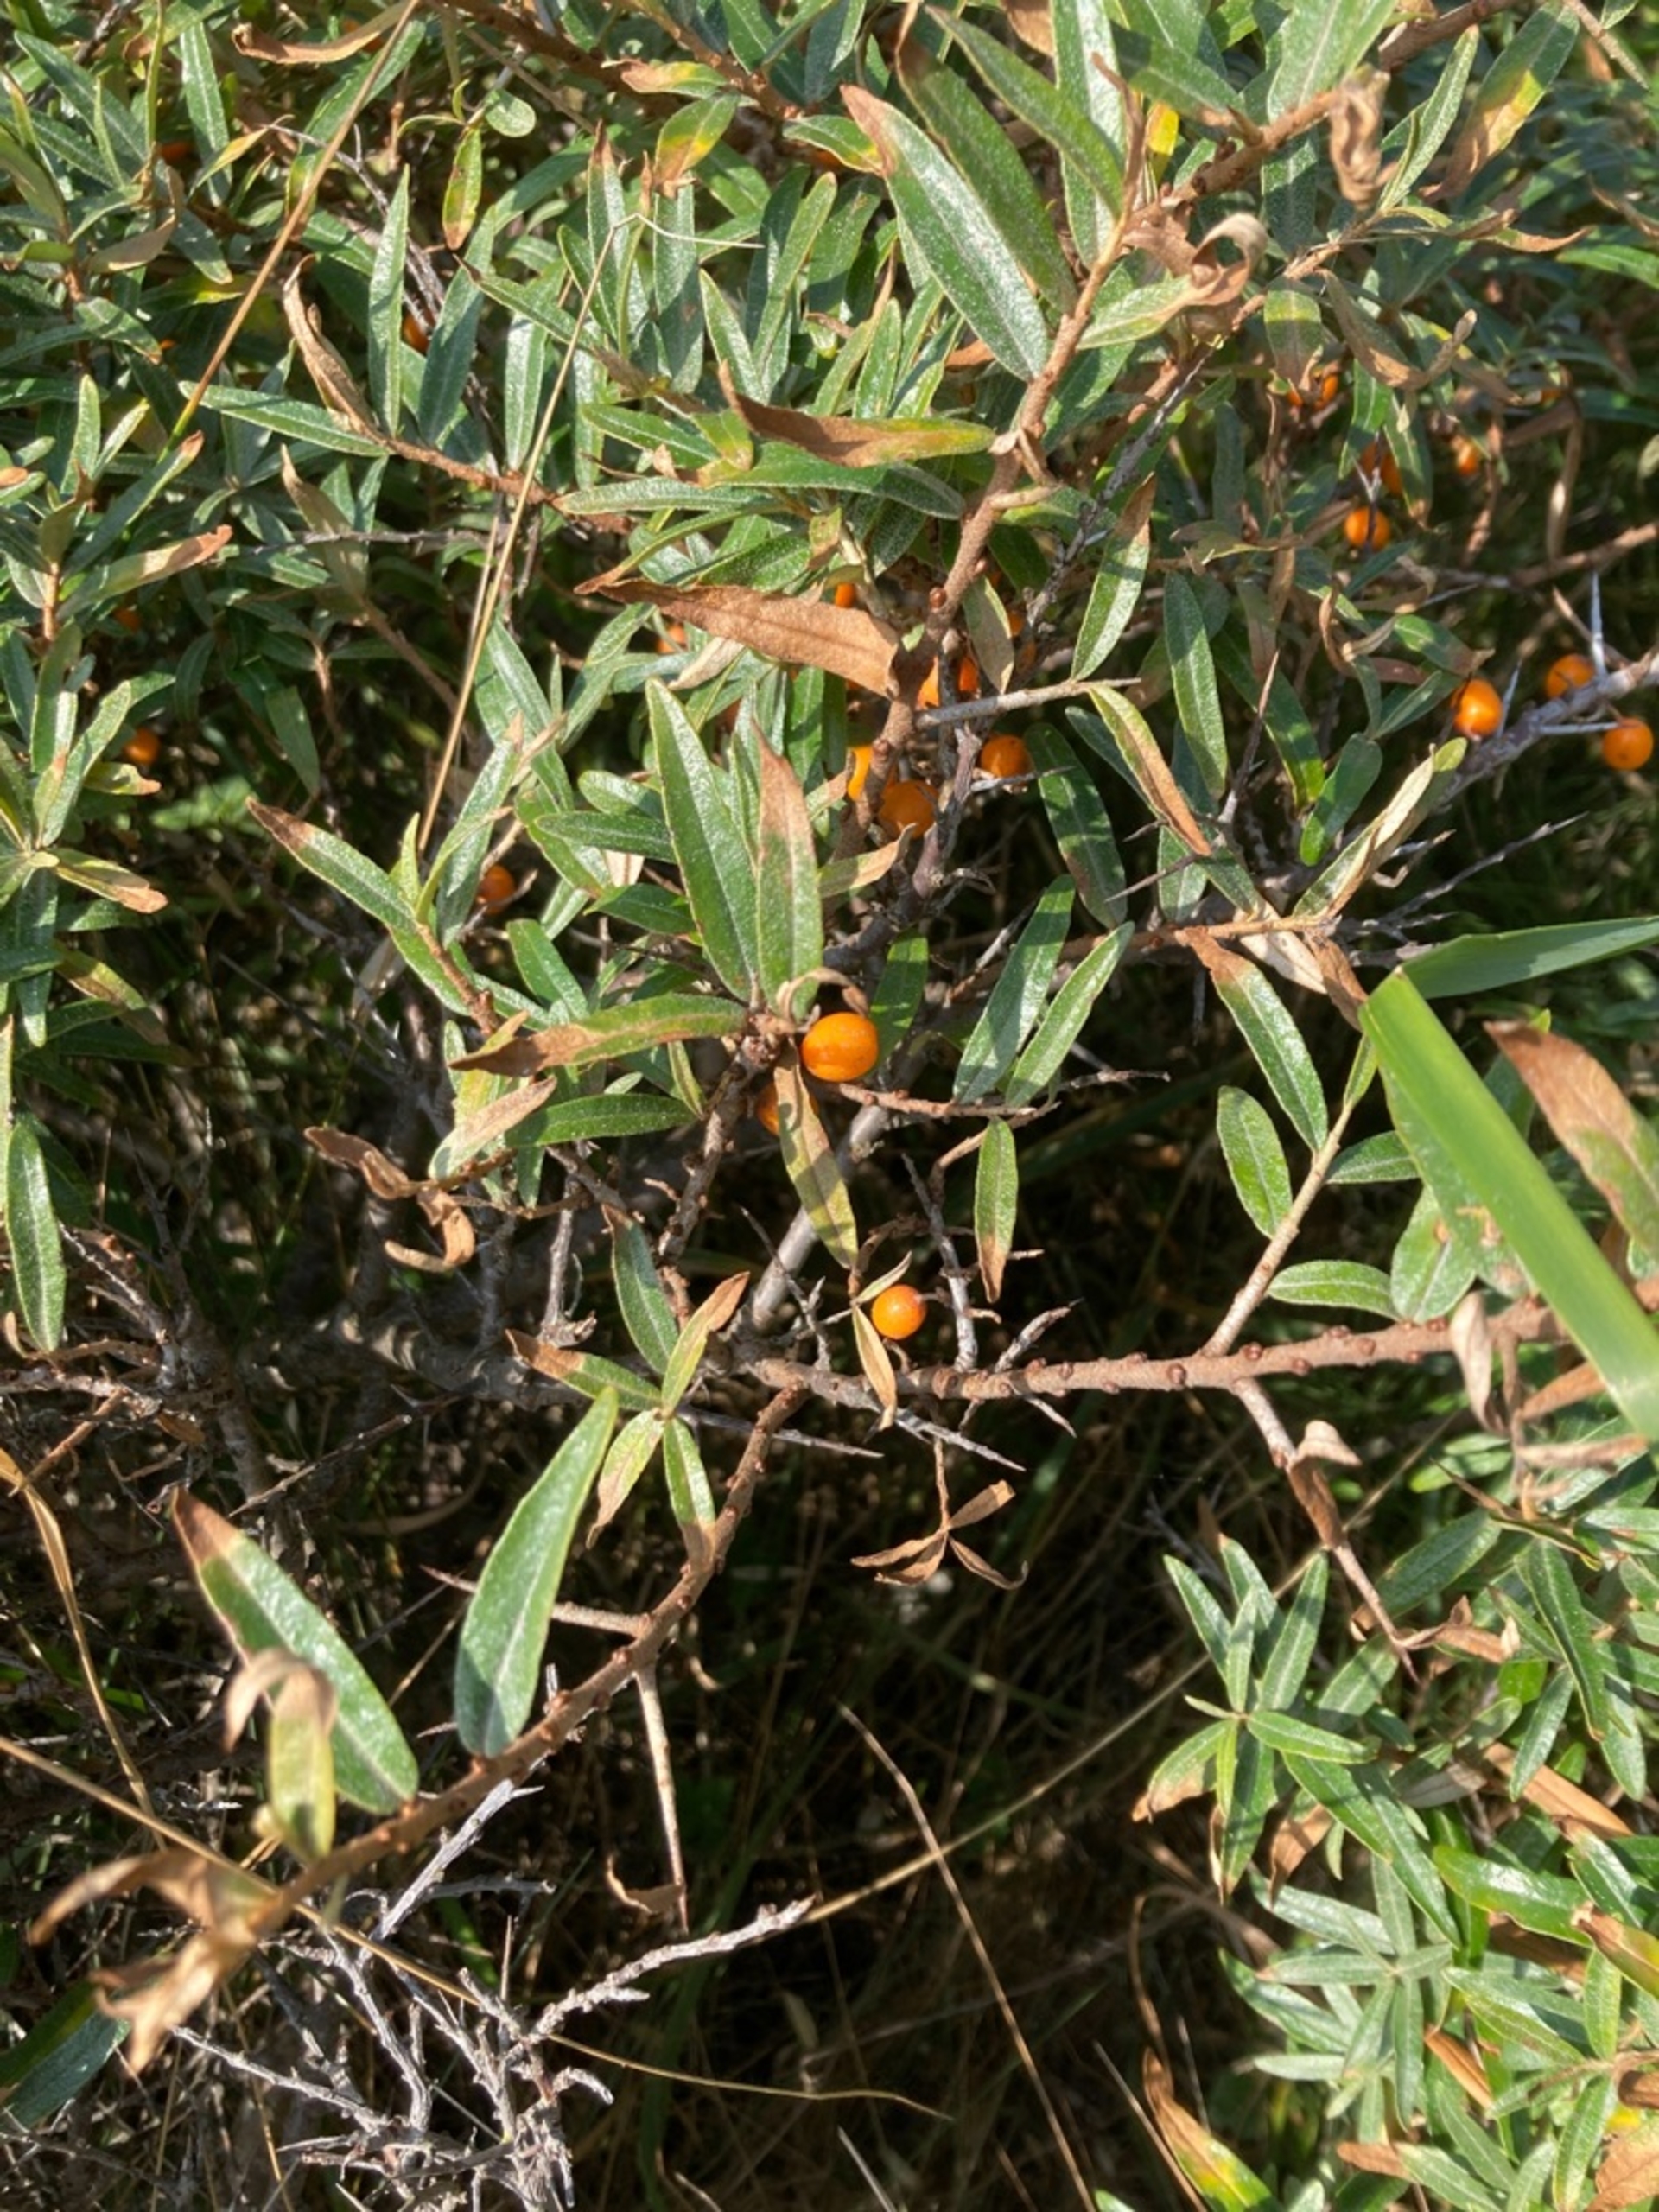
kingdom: Plantae
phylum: Tracheophyta
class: Magnoliopsida
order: Rosales
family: Elaeagnaceae
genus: Hippophae
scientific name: Hippophae rhamnoides
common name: Havtorn
